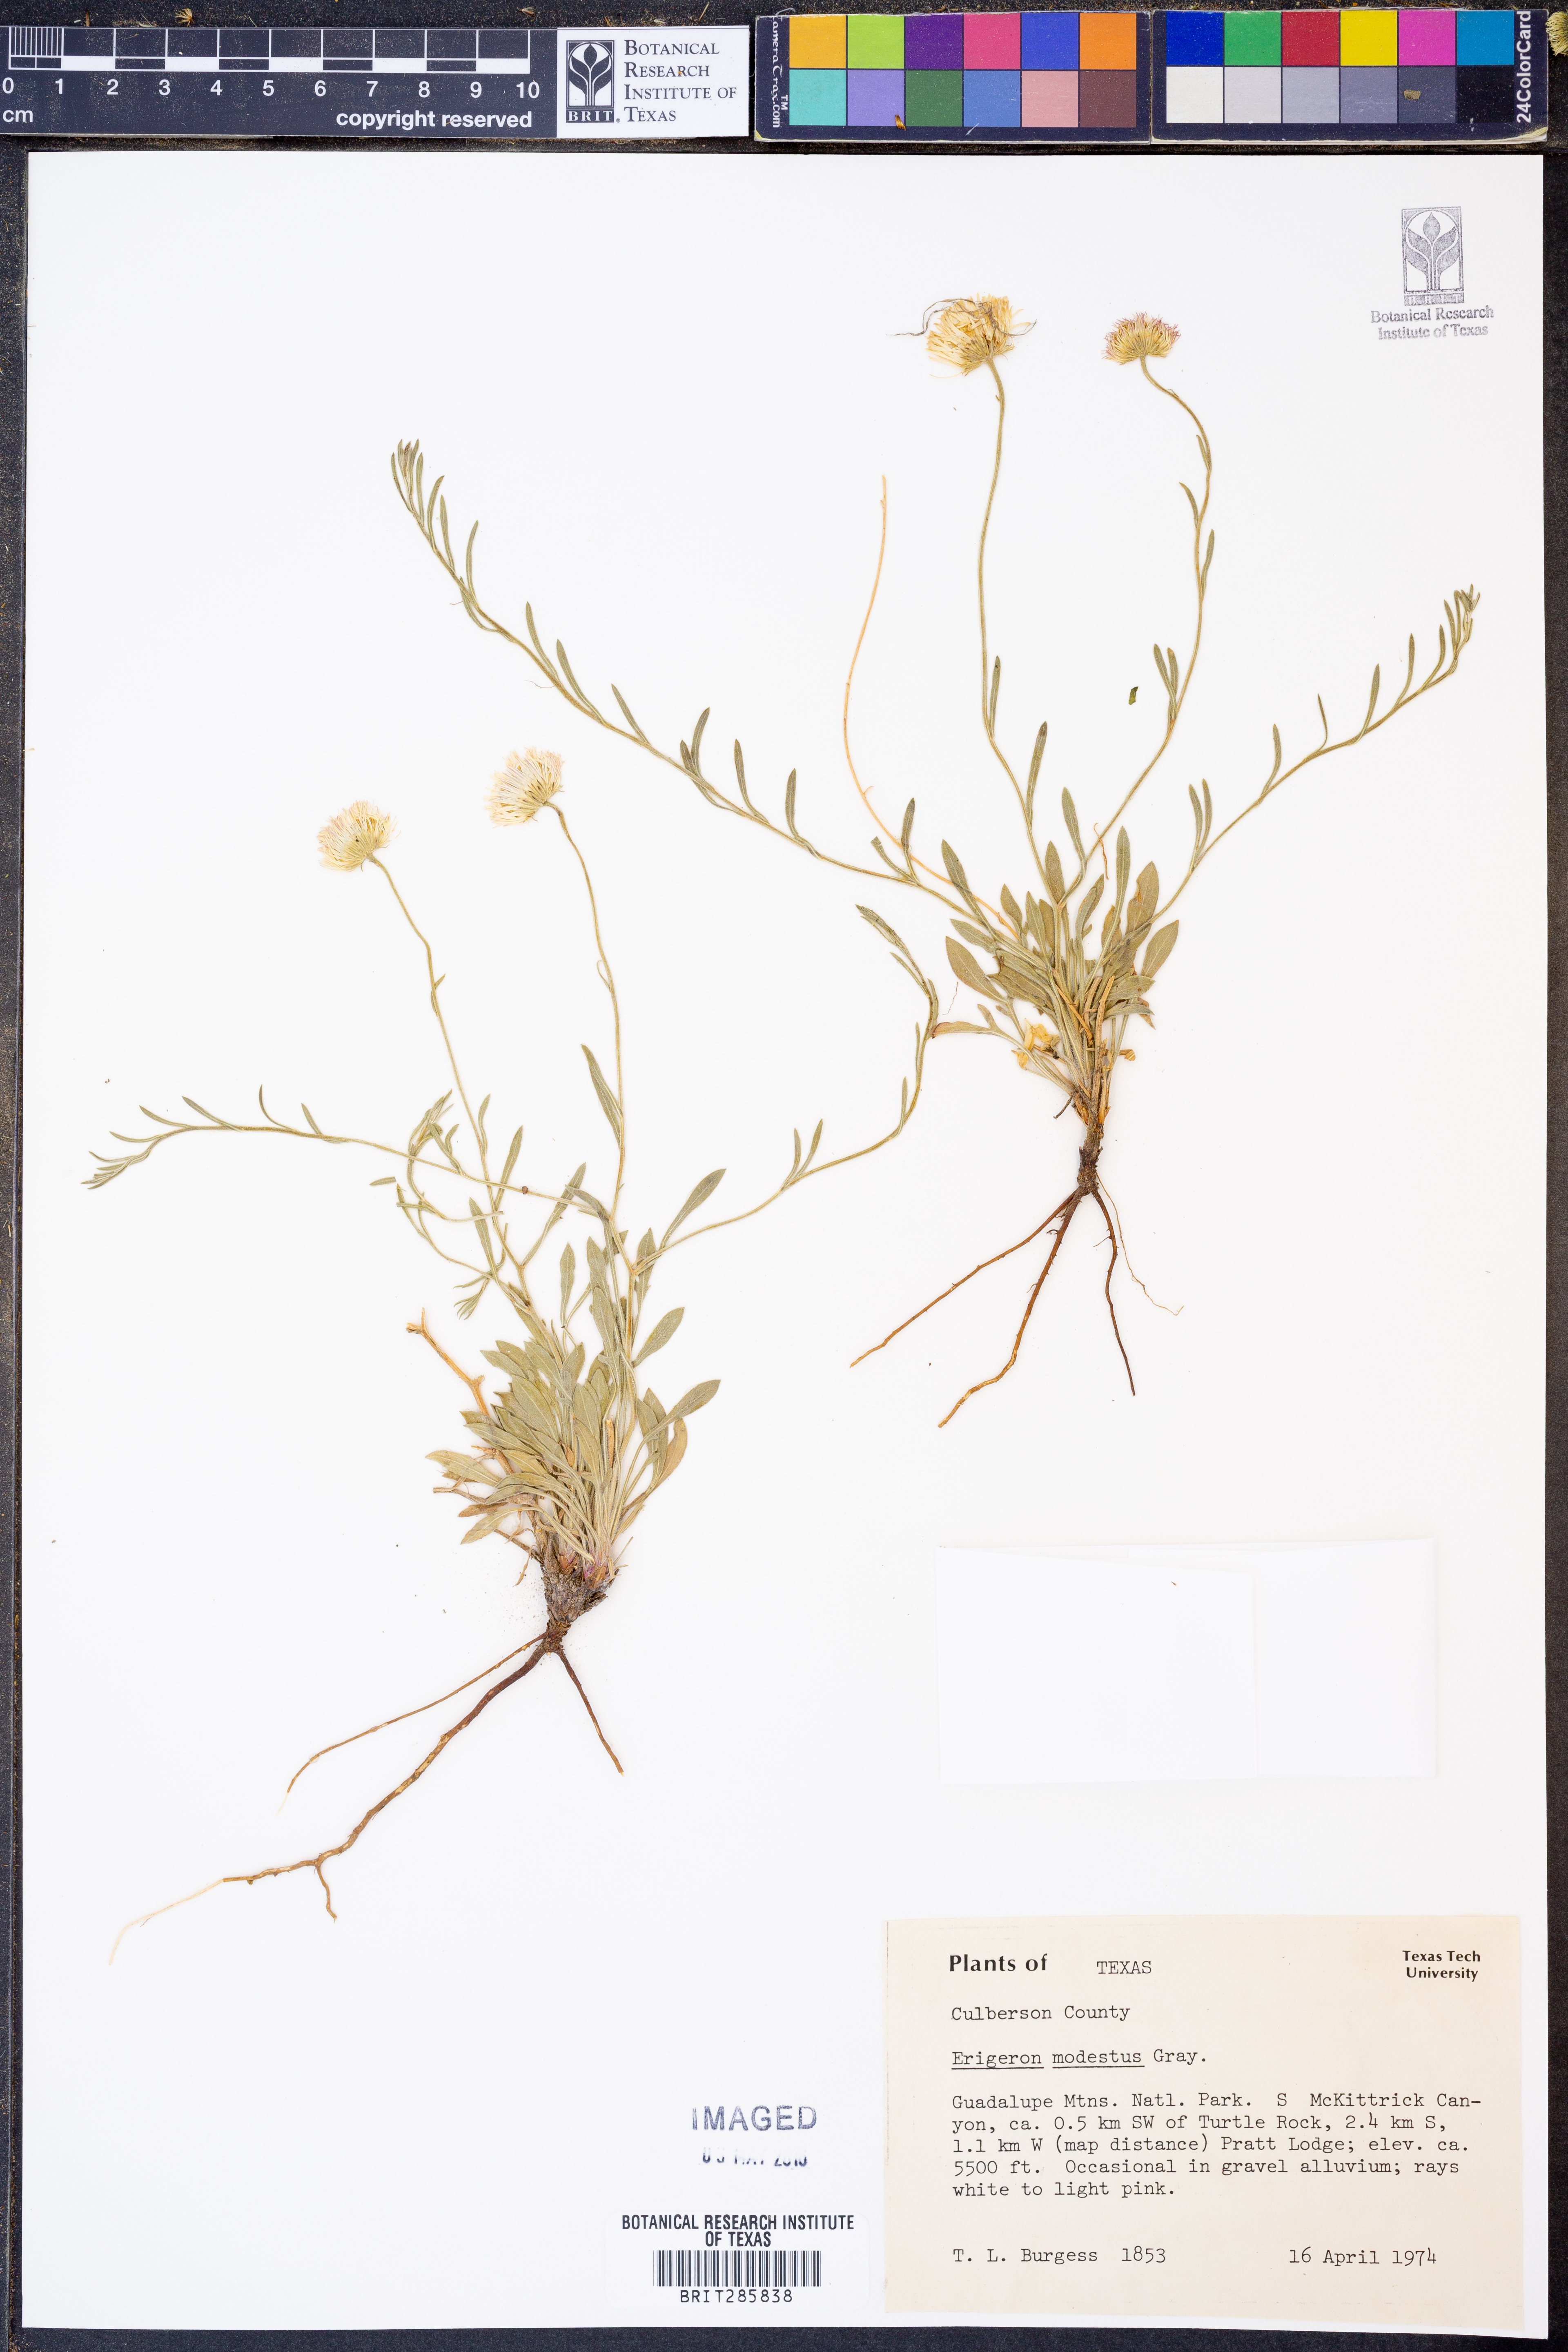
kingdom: Plantae
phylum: Tracheophyta
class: Magnoliopsida
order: Asterales
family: Asteraceae
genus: Erigeron
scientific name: Erigeron modestus
